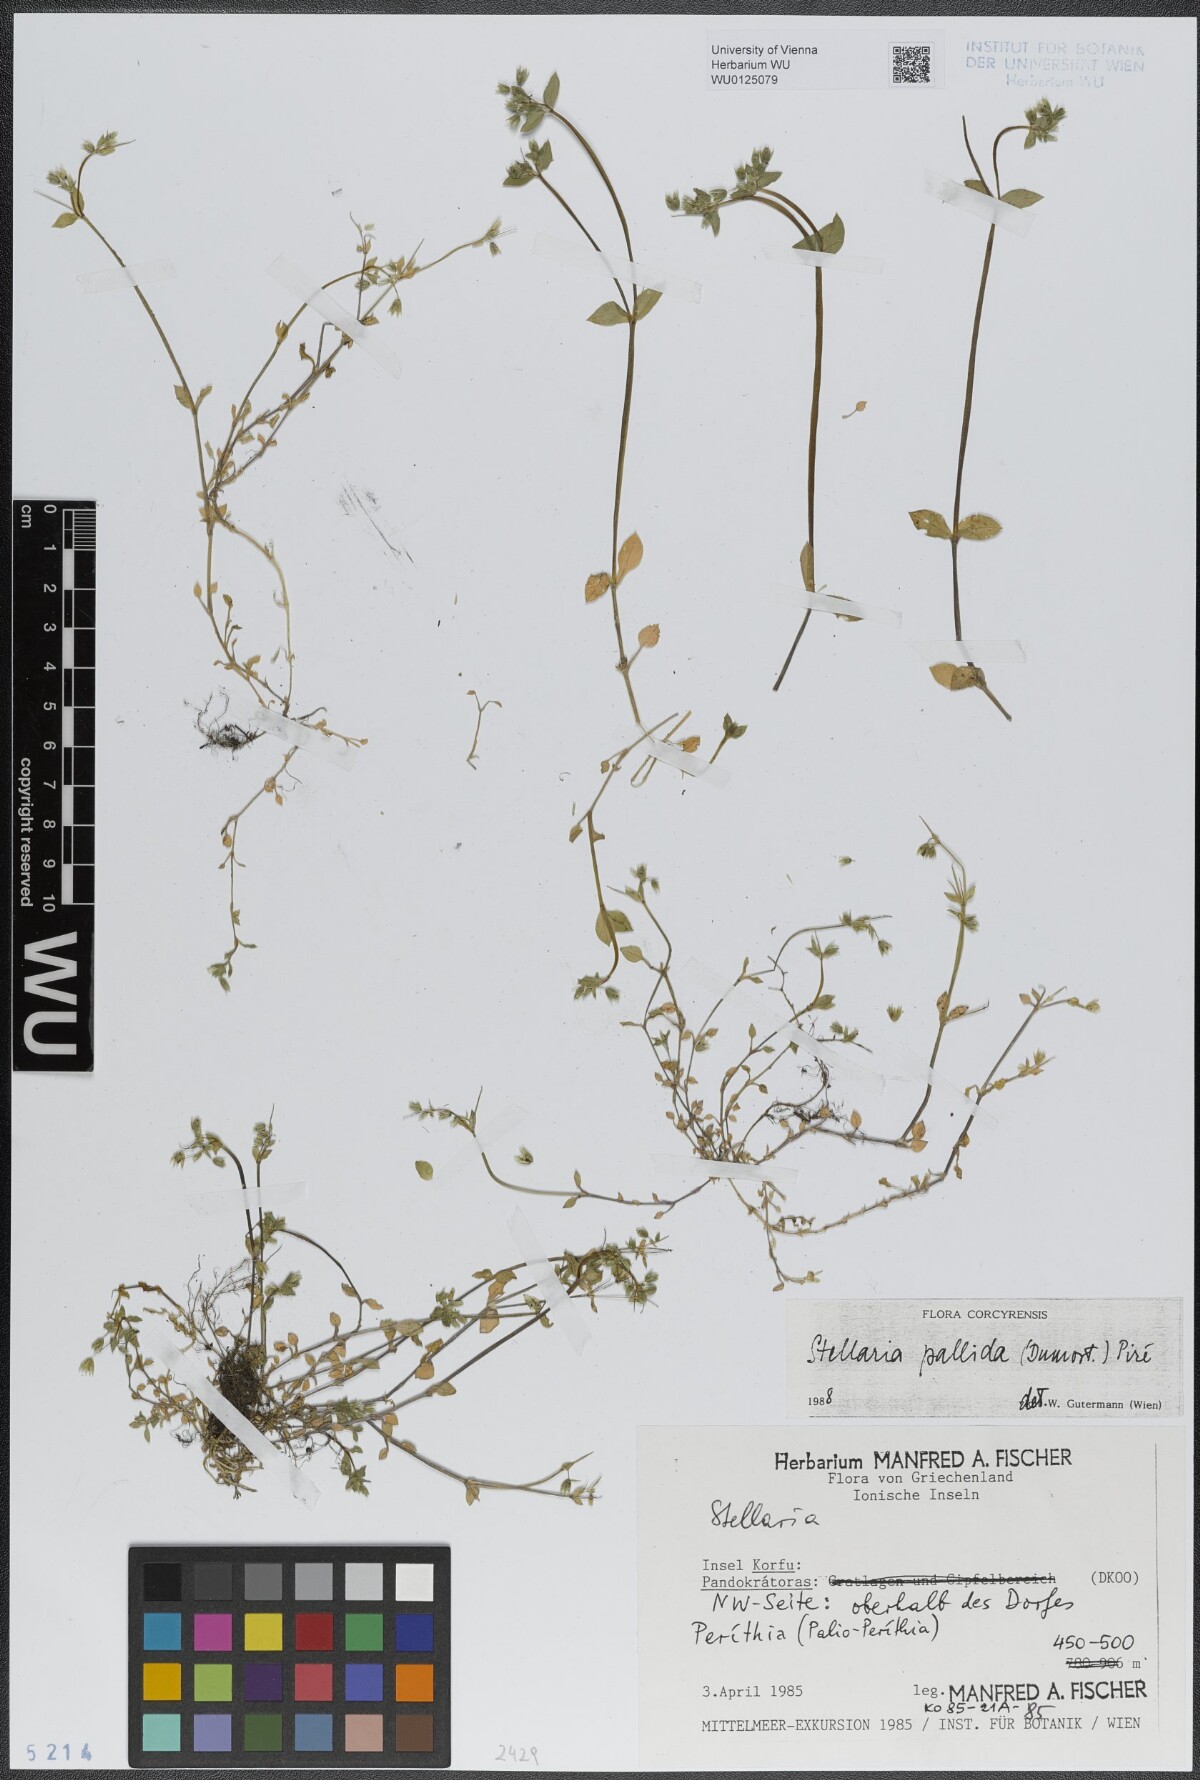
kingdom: Plantae
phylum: Tracheophyta
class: Magnoliopsida
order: Caryophyllales
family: Caryophyllaceae
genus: Stellaria
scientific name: Stellaria apetala
